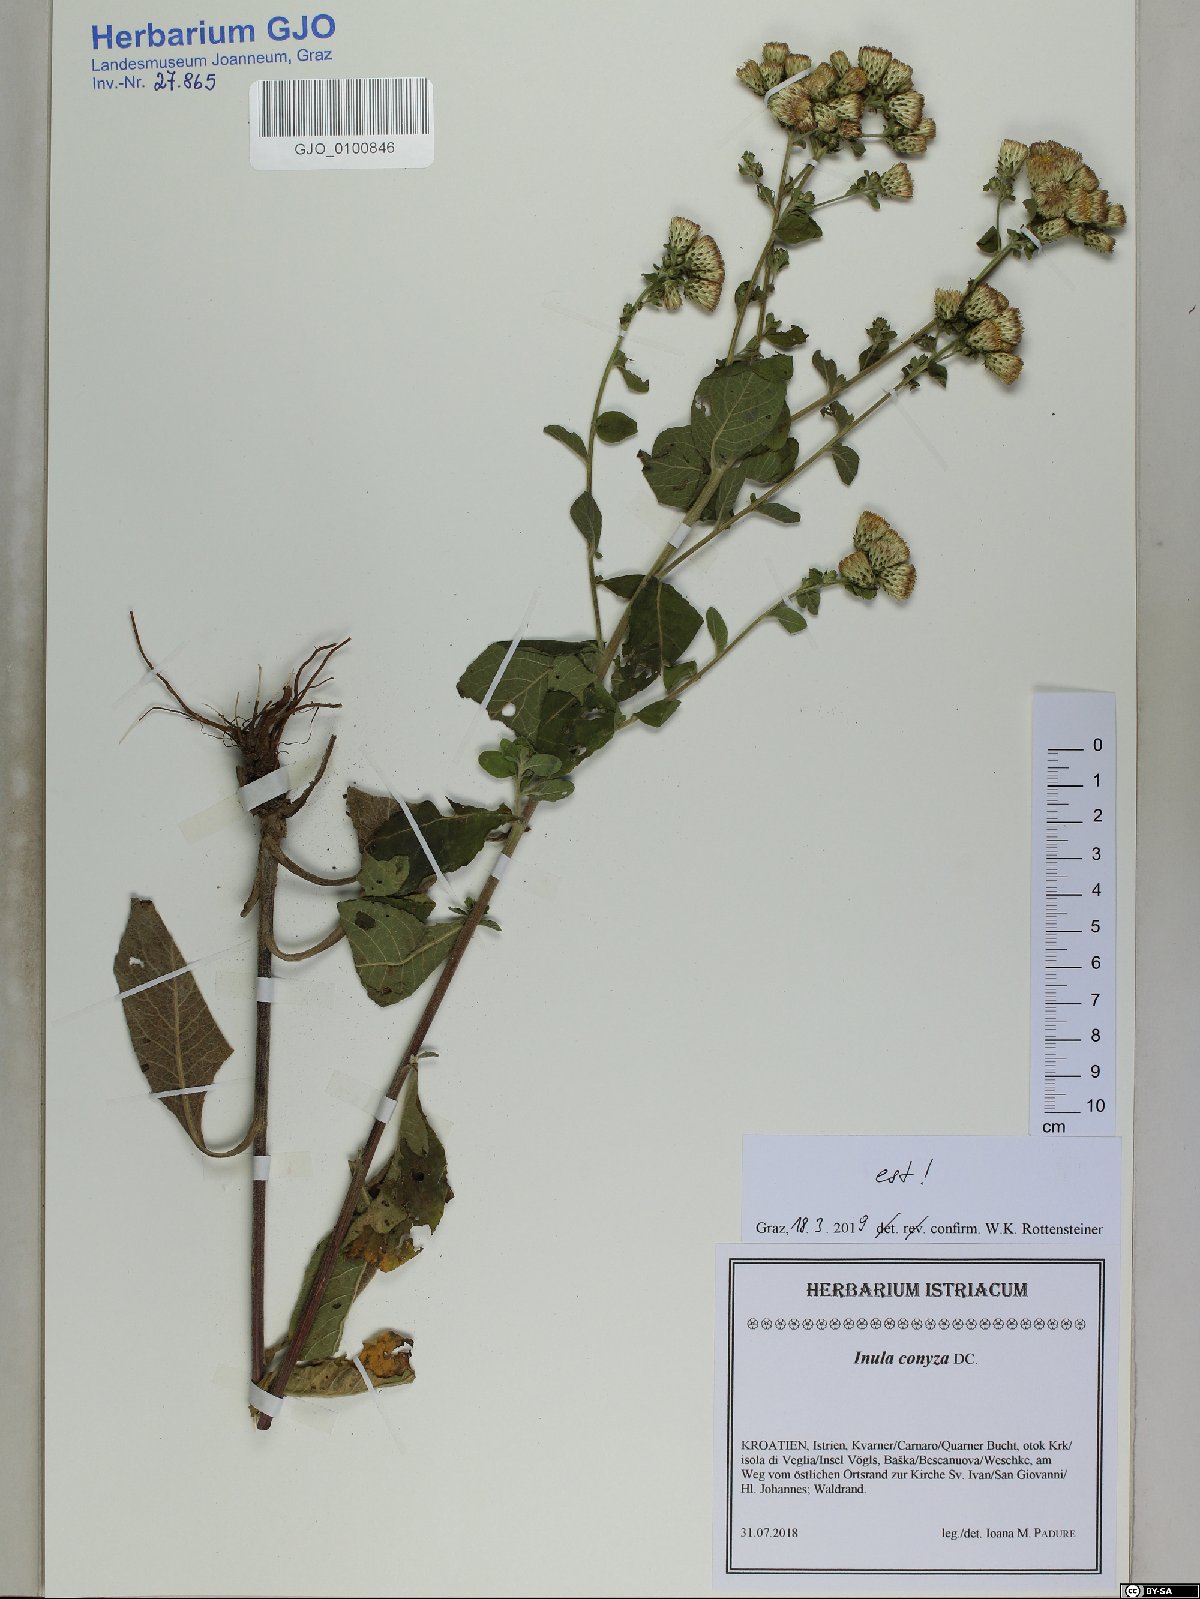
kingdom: Plantae
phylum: Tracheophyta
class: Magnoliopsida
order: Asterales
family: Asteraceae
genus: Pentanema
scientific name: Pentanema squarrosum
